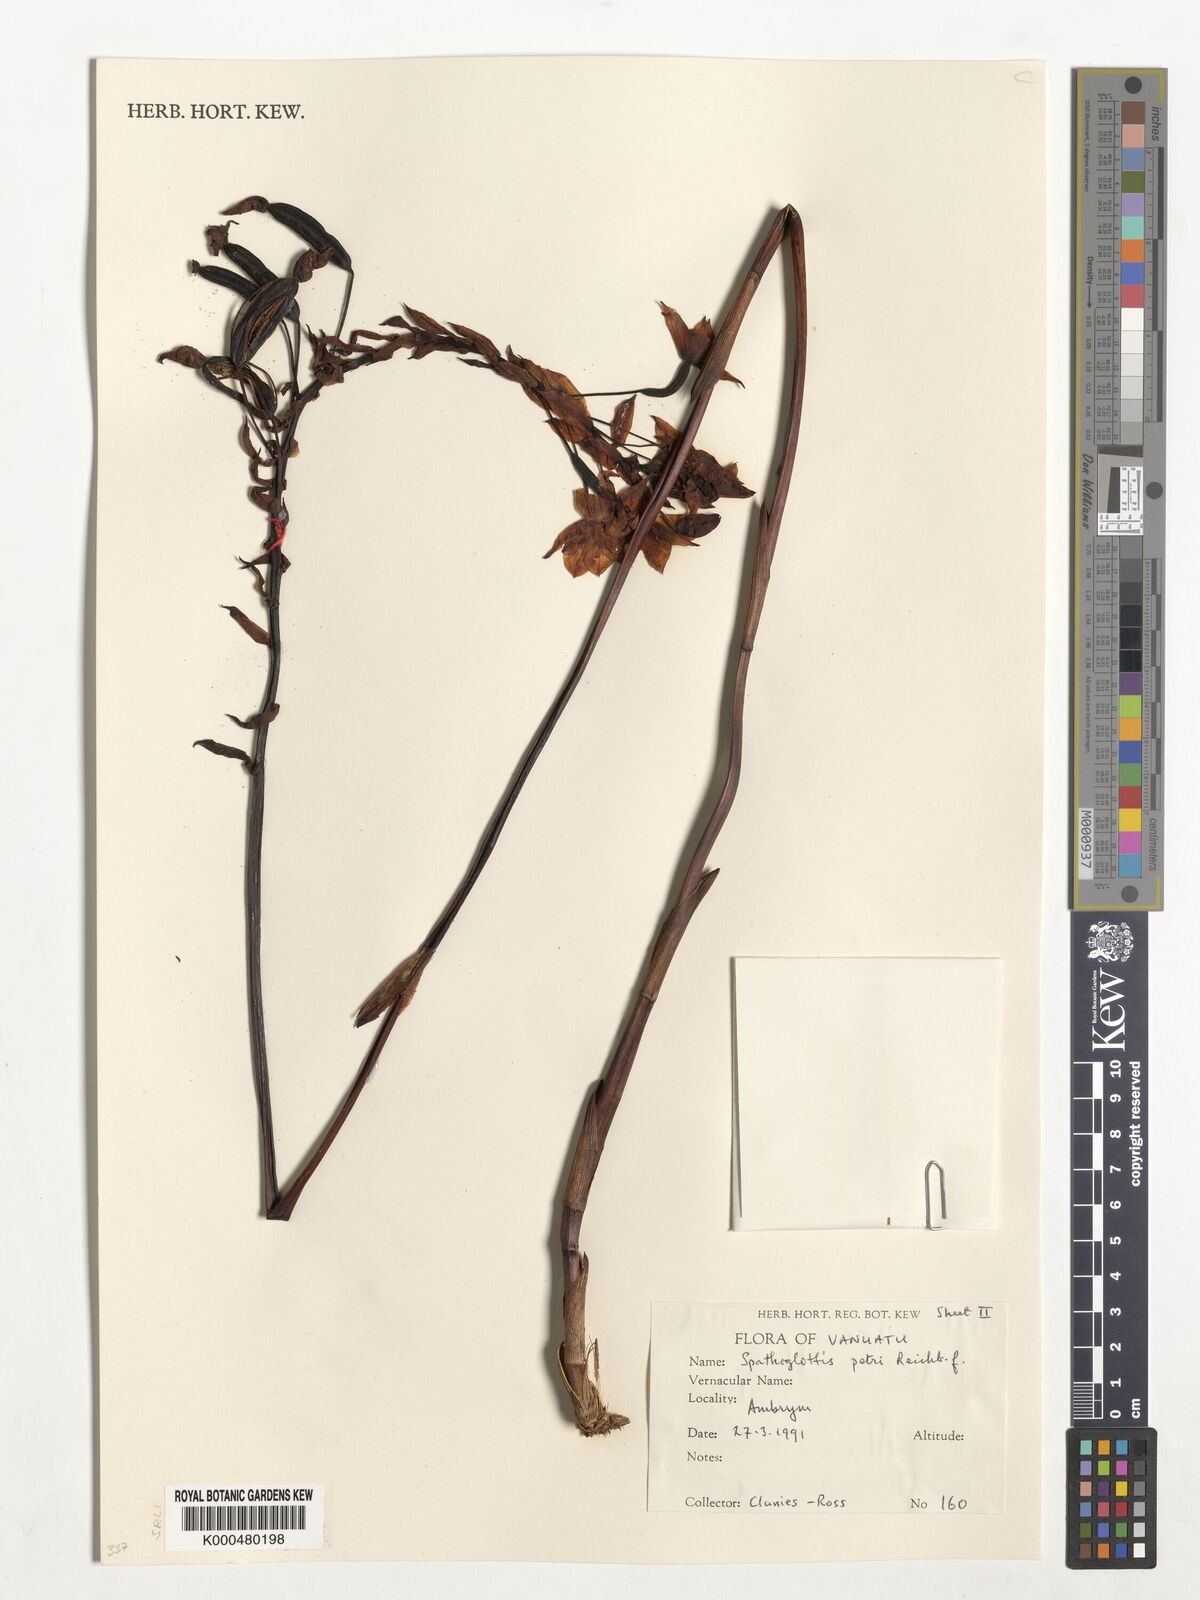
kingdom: Plantae
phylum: Tracheophyta
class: Liliopsida
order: Asparagales
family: Orchidaceae
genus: Spathoglottis
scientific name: Spathoglottis petri
